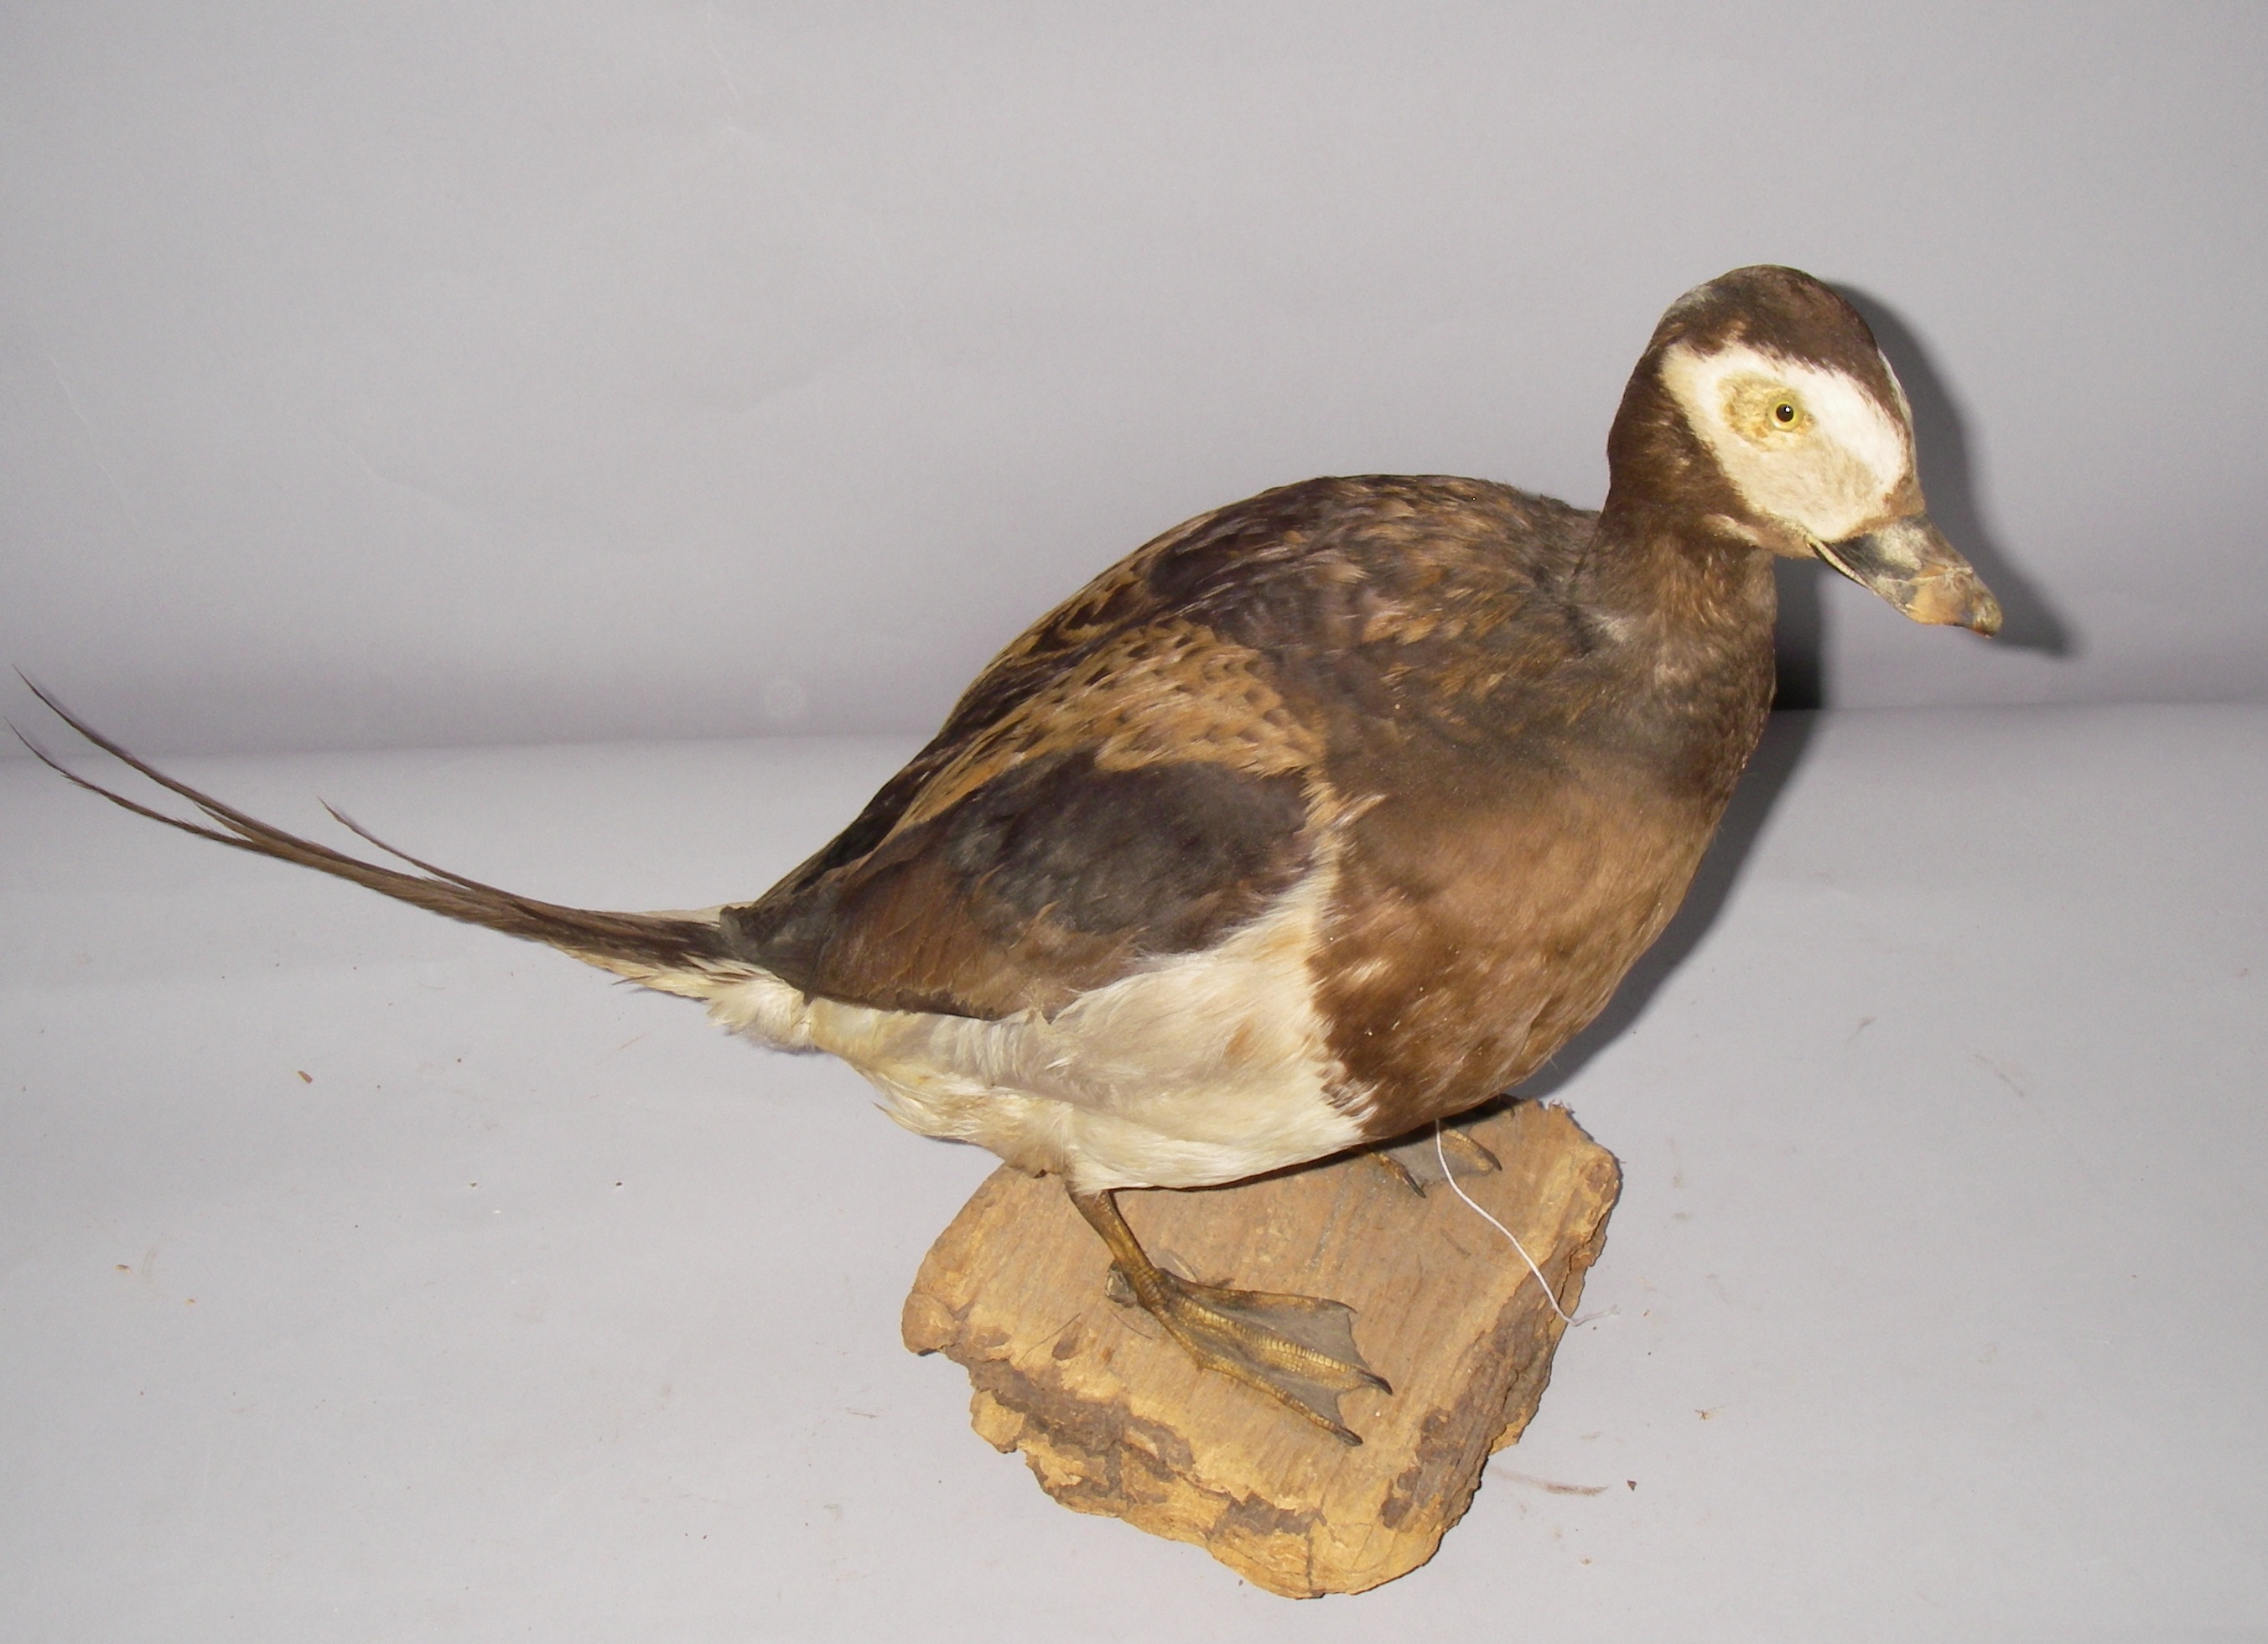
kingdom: Animalia
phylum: Chordata
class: Aves
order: Anseriformes
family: Anatidae
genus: Clangula
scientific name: Clangula hyemalis
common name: Long-tailed duck
